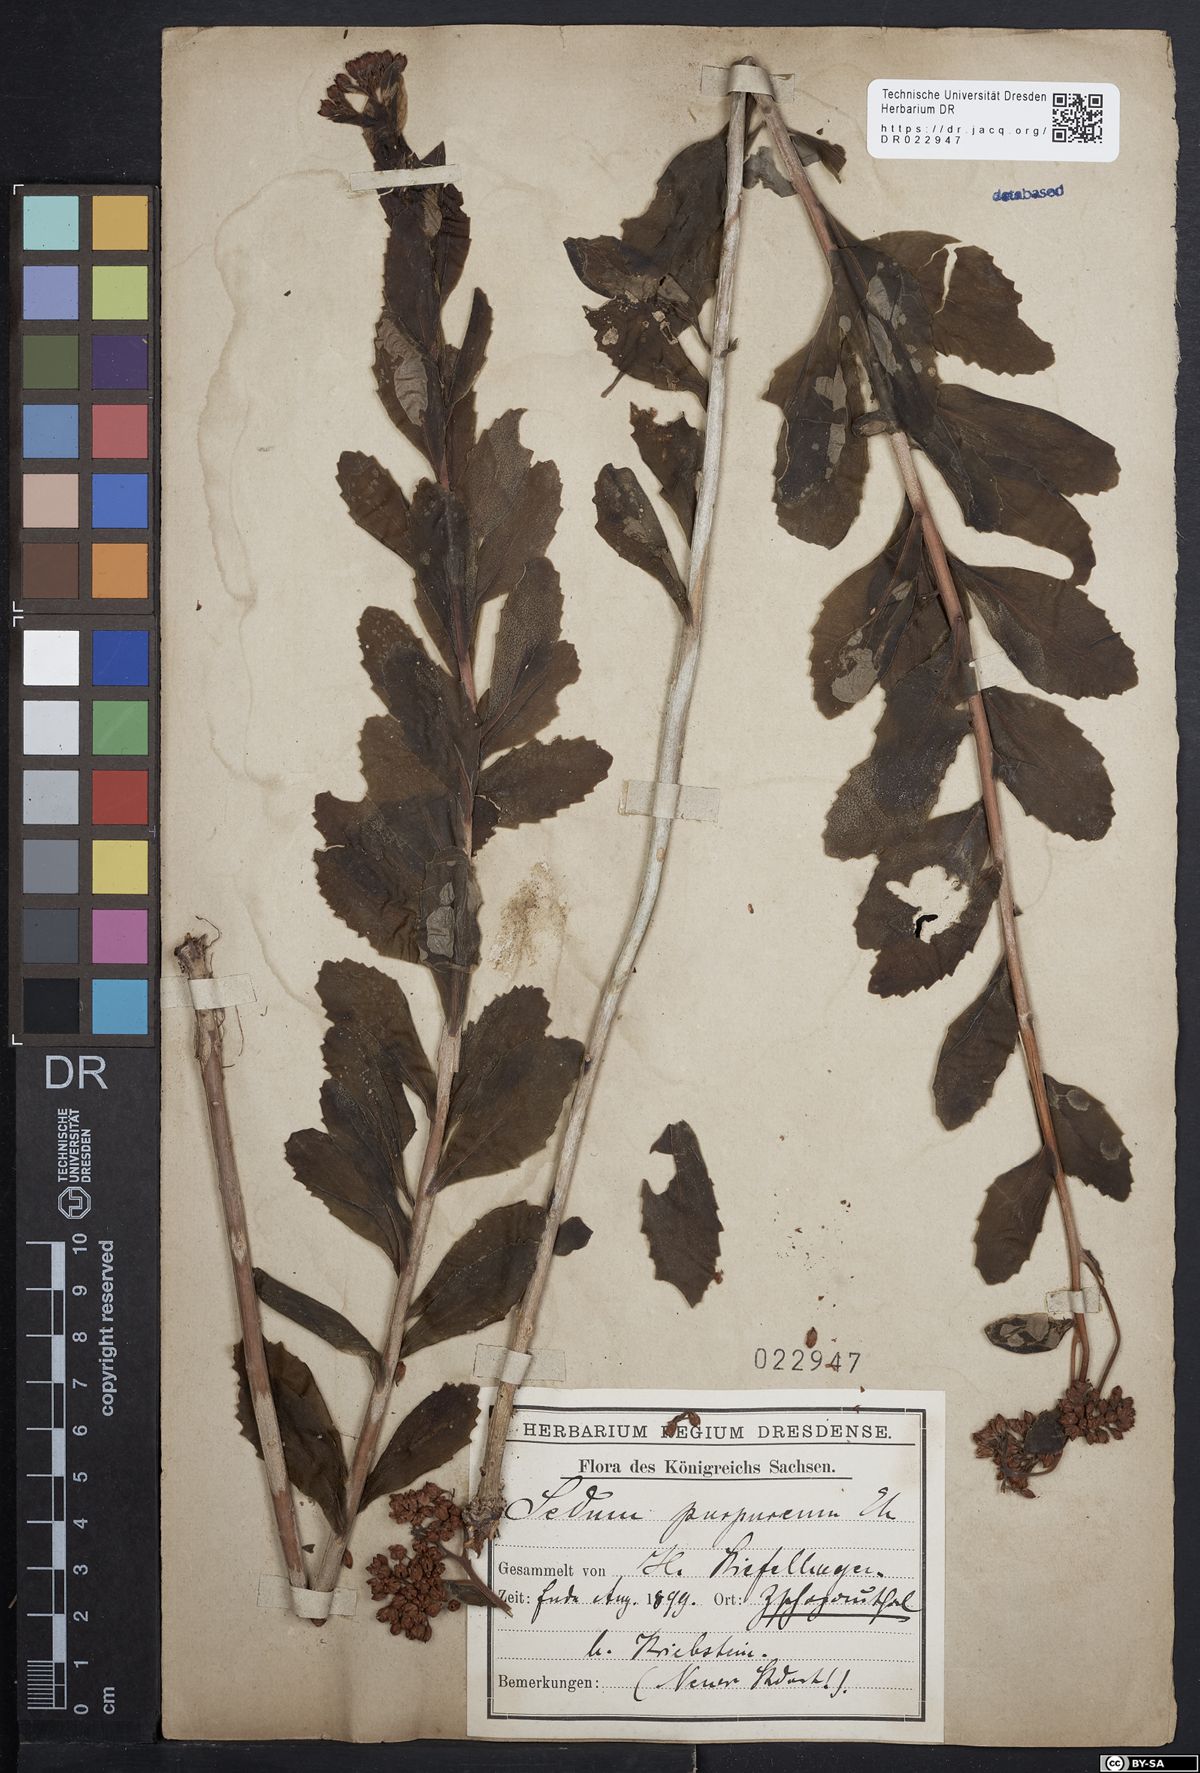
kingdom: Plantae
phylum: Tracheophyta
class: Magnoliopsida
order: Saxifragales
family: Crassulaceae
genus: Hylotelephium
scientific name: Hylotelephium telephium
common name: Live-forever
